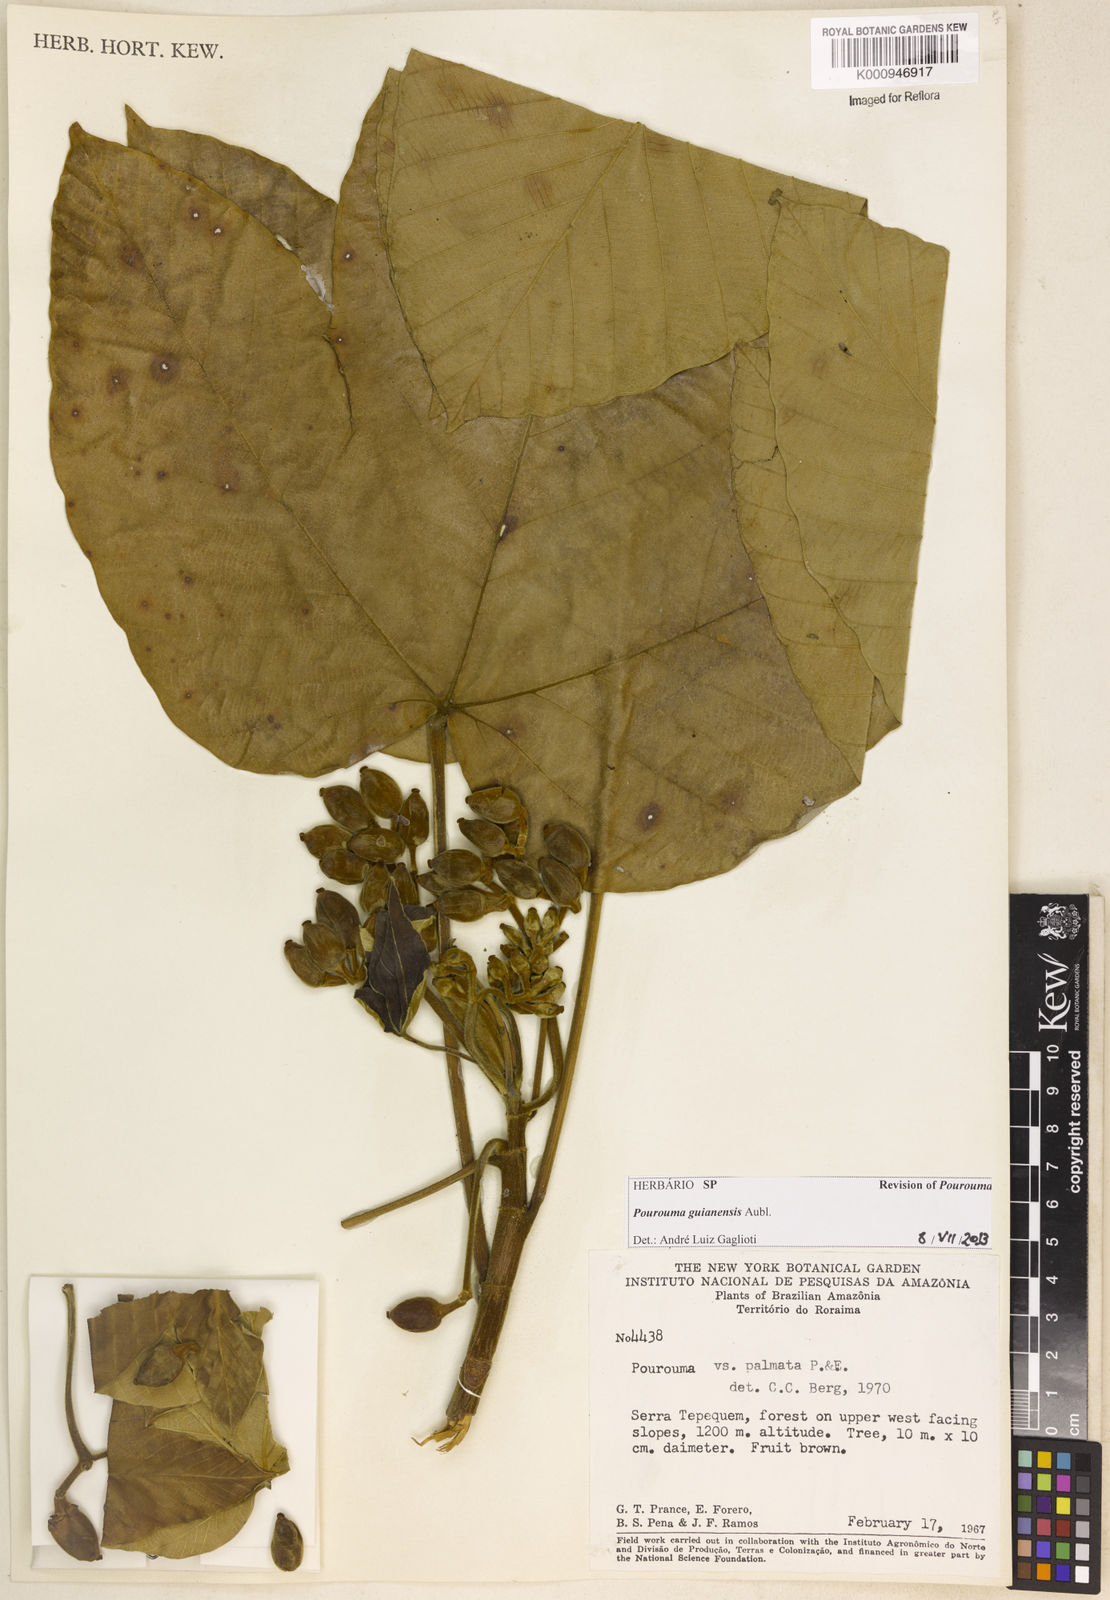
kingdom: Plantae
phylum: Tracheophyta
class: Magnoliopsida
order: Rosales
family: Urticaceae
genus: Pourouma
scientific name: Pourouma guianensis
